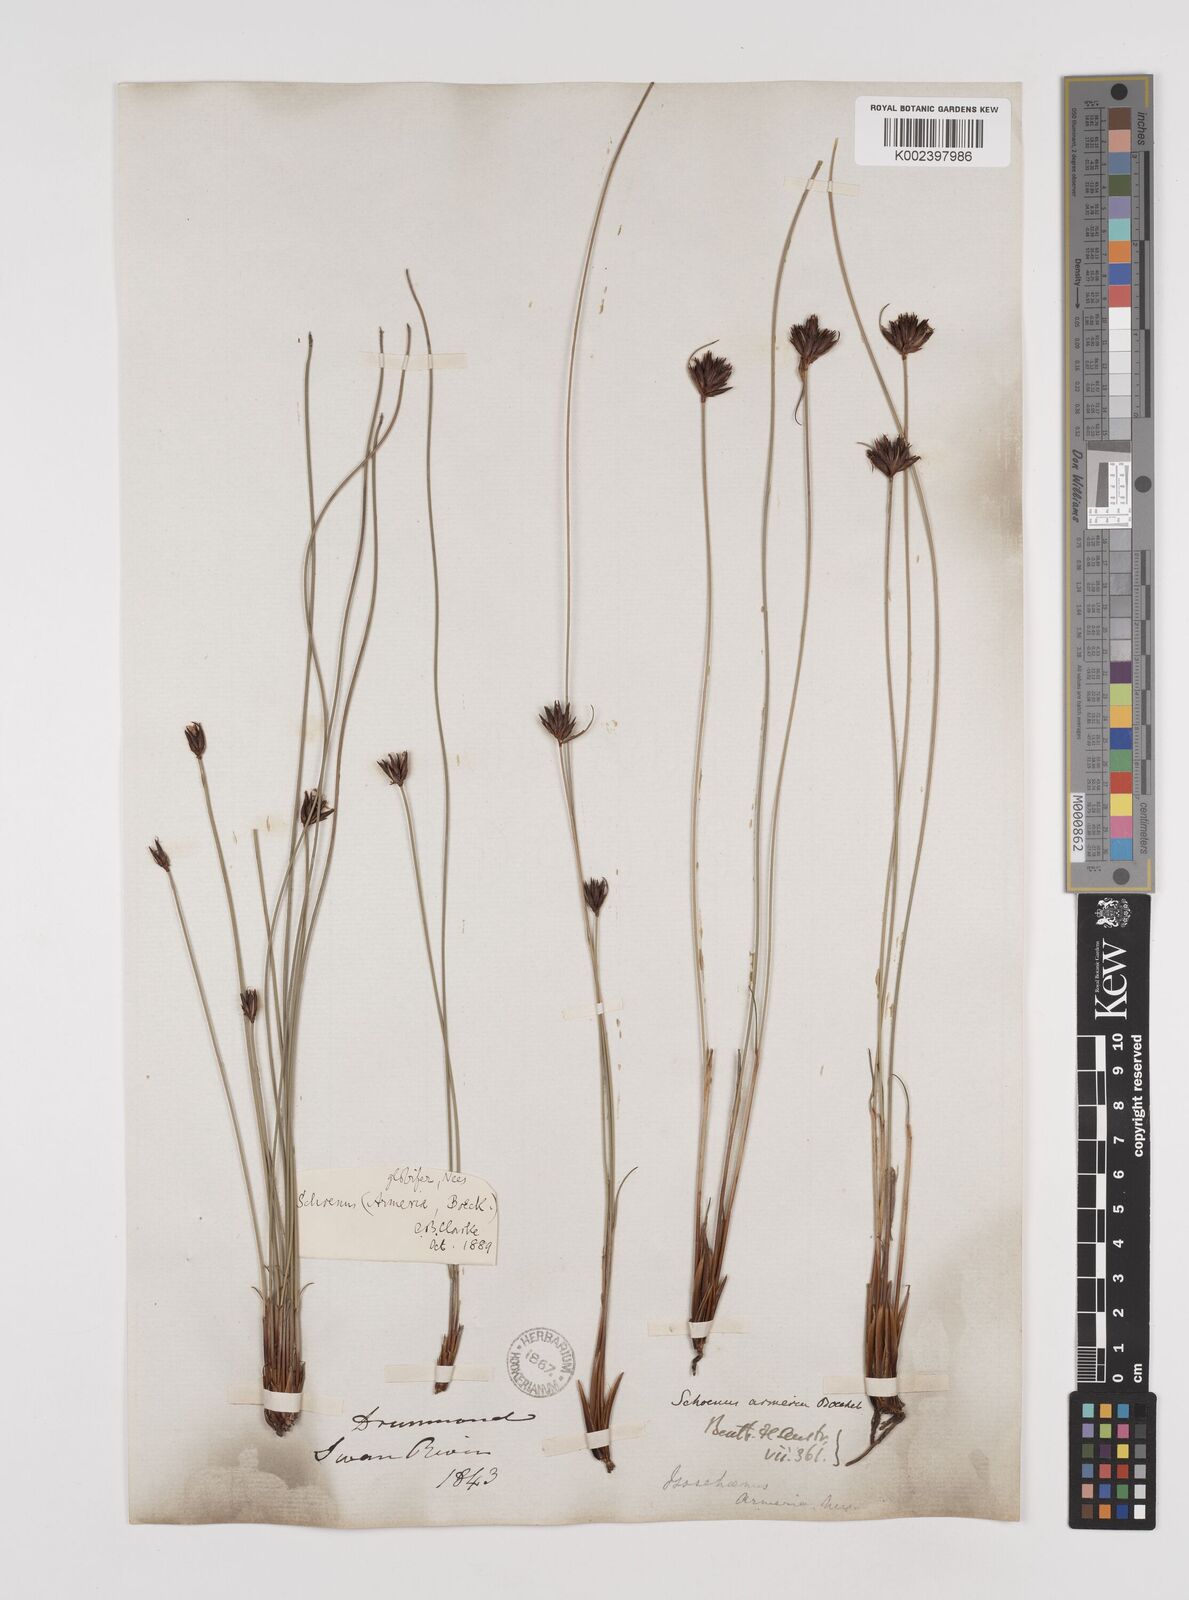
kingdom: Plantae
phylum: Tracheophyta
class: Liliopsida
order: Poales
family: Cyperaceae
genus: Schoenus
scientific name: Schoenus globifer
